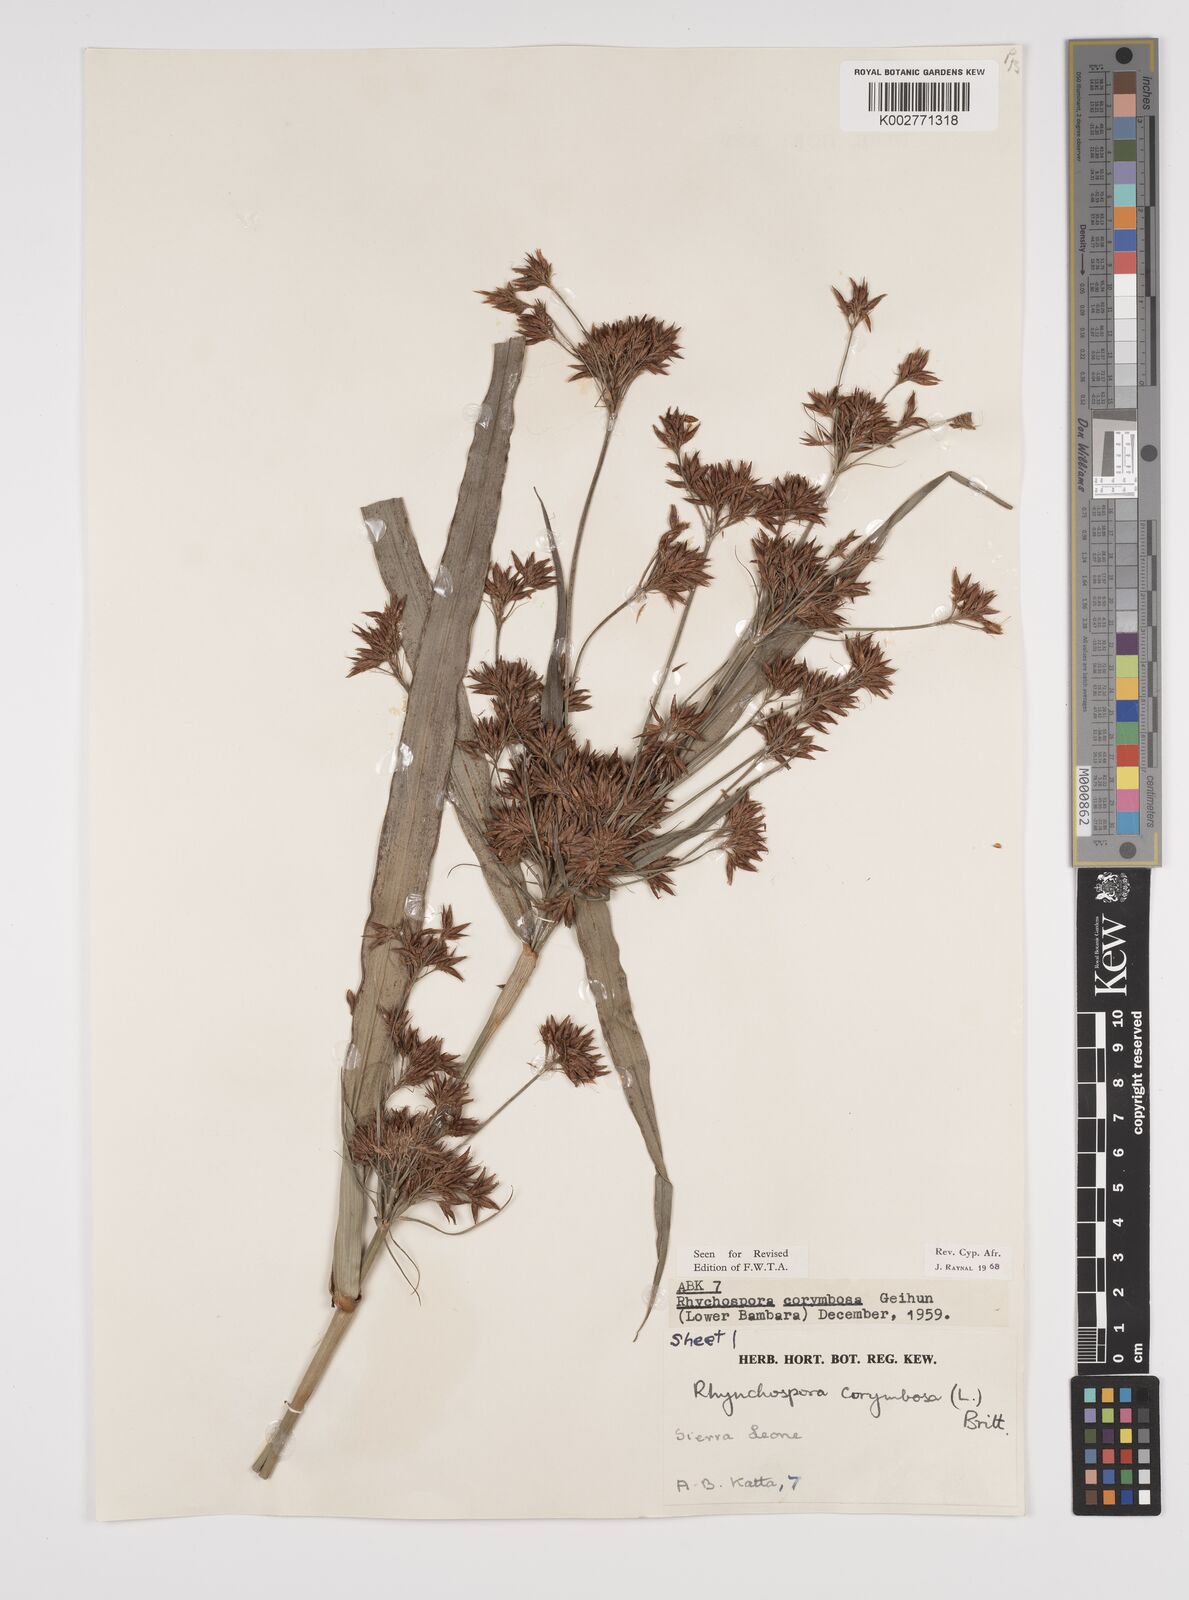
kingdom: Plantae
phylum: Tracheophyta
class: Liliopsida
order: Poales
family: Cyperaceae
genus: Rhynchospora
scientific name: Rhynchospora corymbosa
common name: Golden beak sedge
